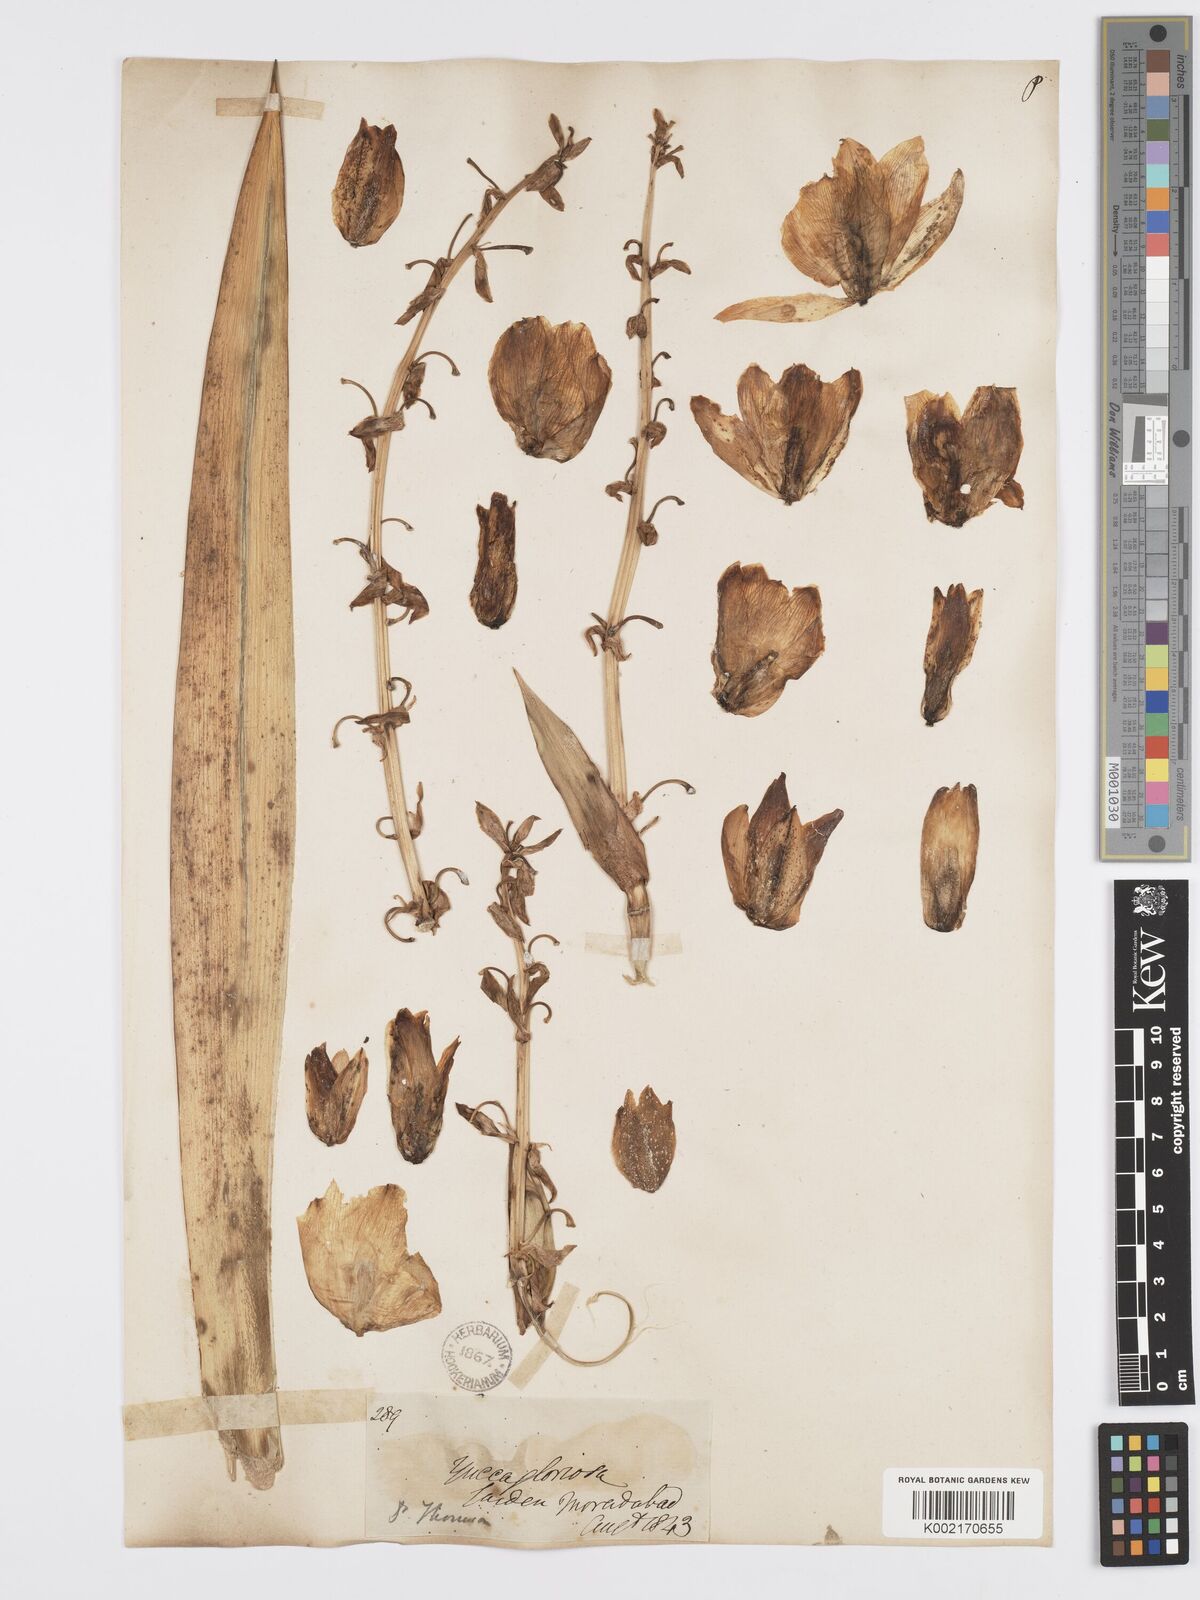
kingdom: Plantae
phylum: Tracheophyta
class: Liliopsida
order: Asparagales
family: Asparagaceae
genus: Yucca
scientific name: Yucca gloriosa
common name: Spanish-dagger
